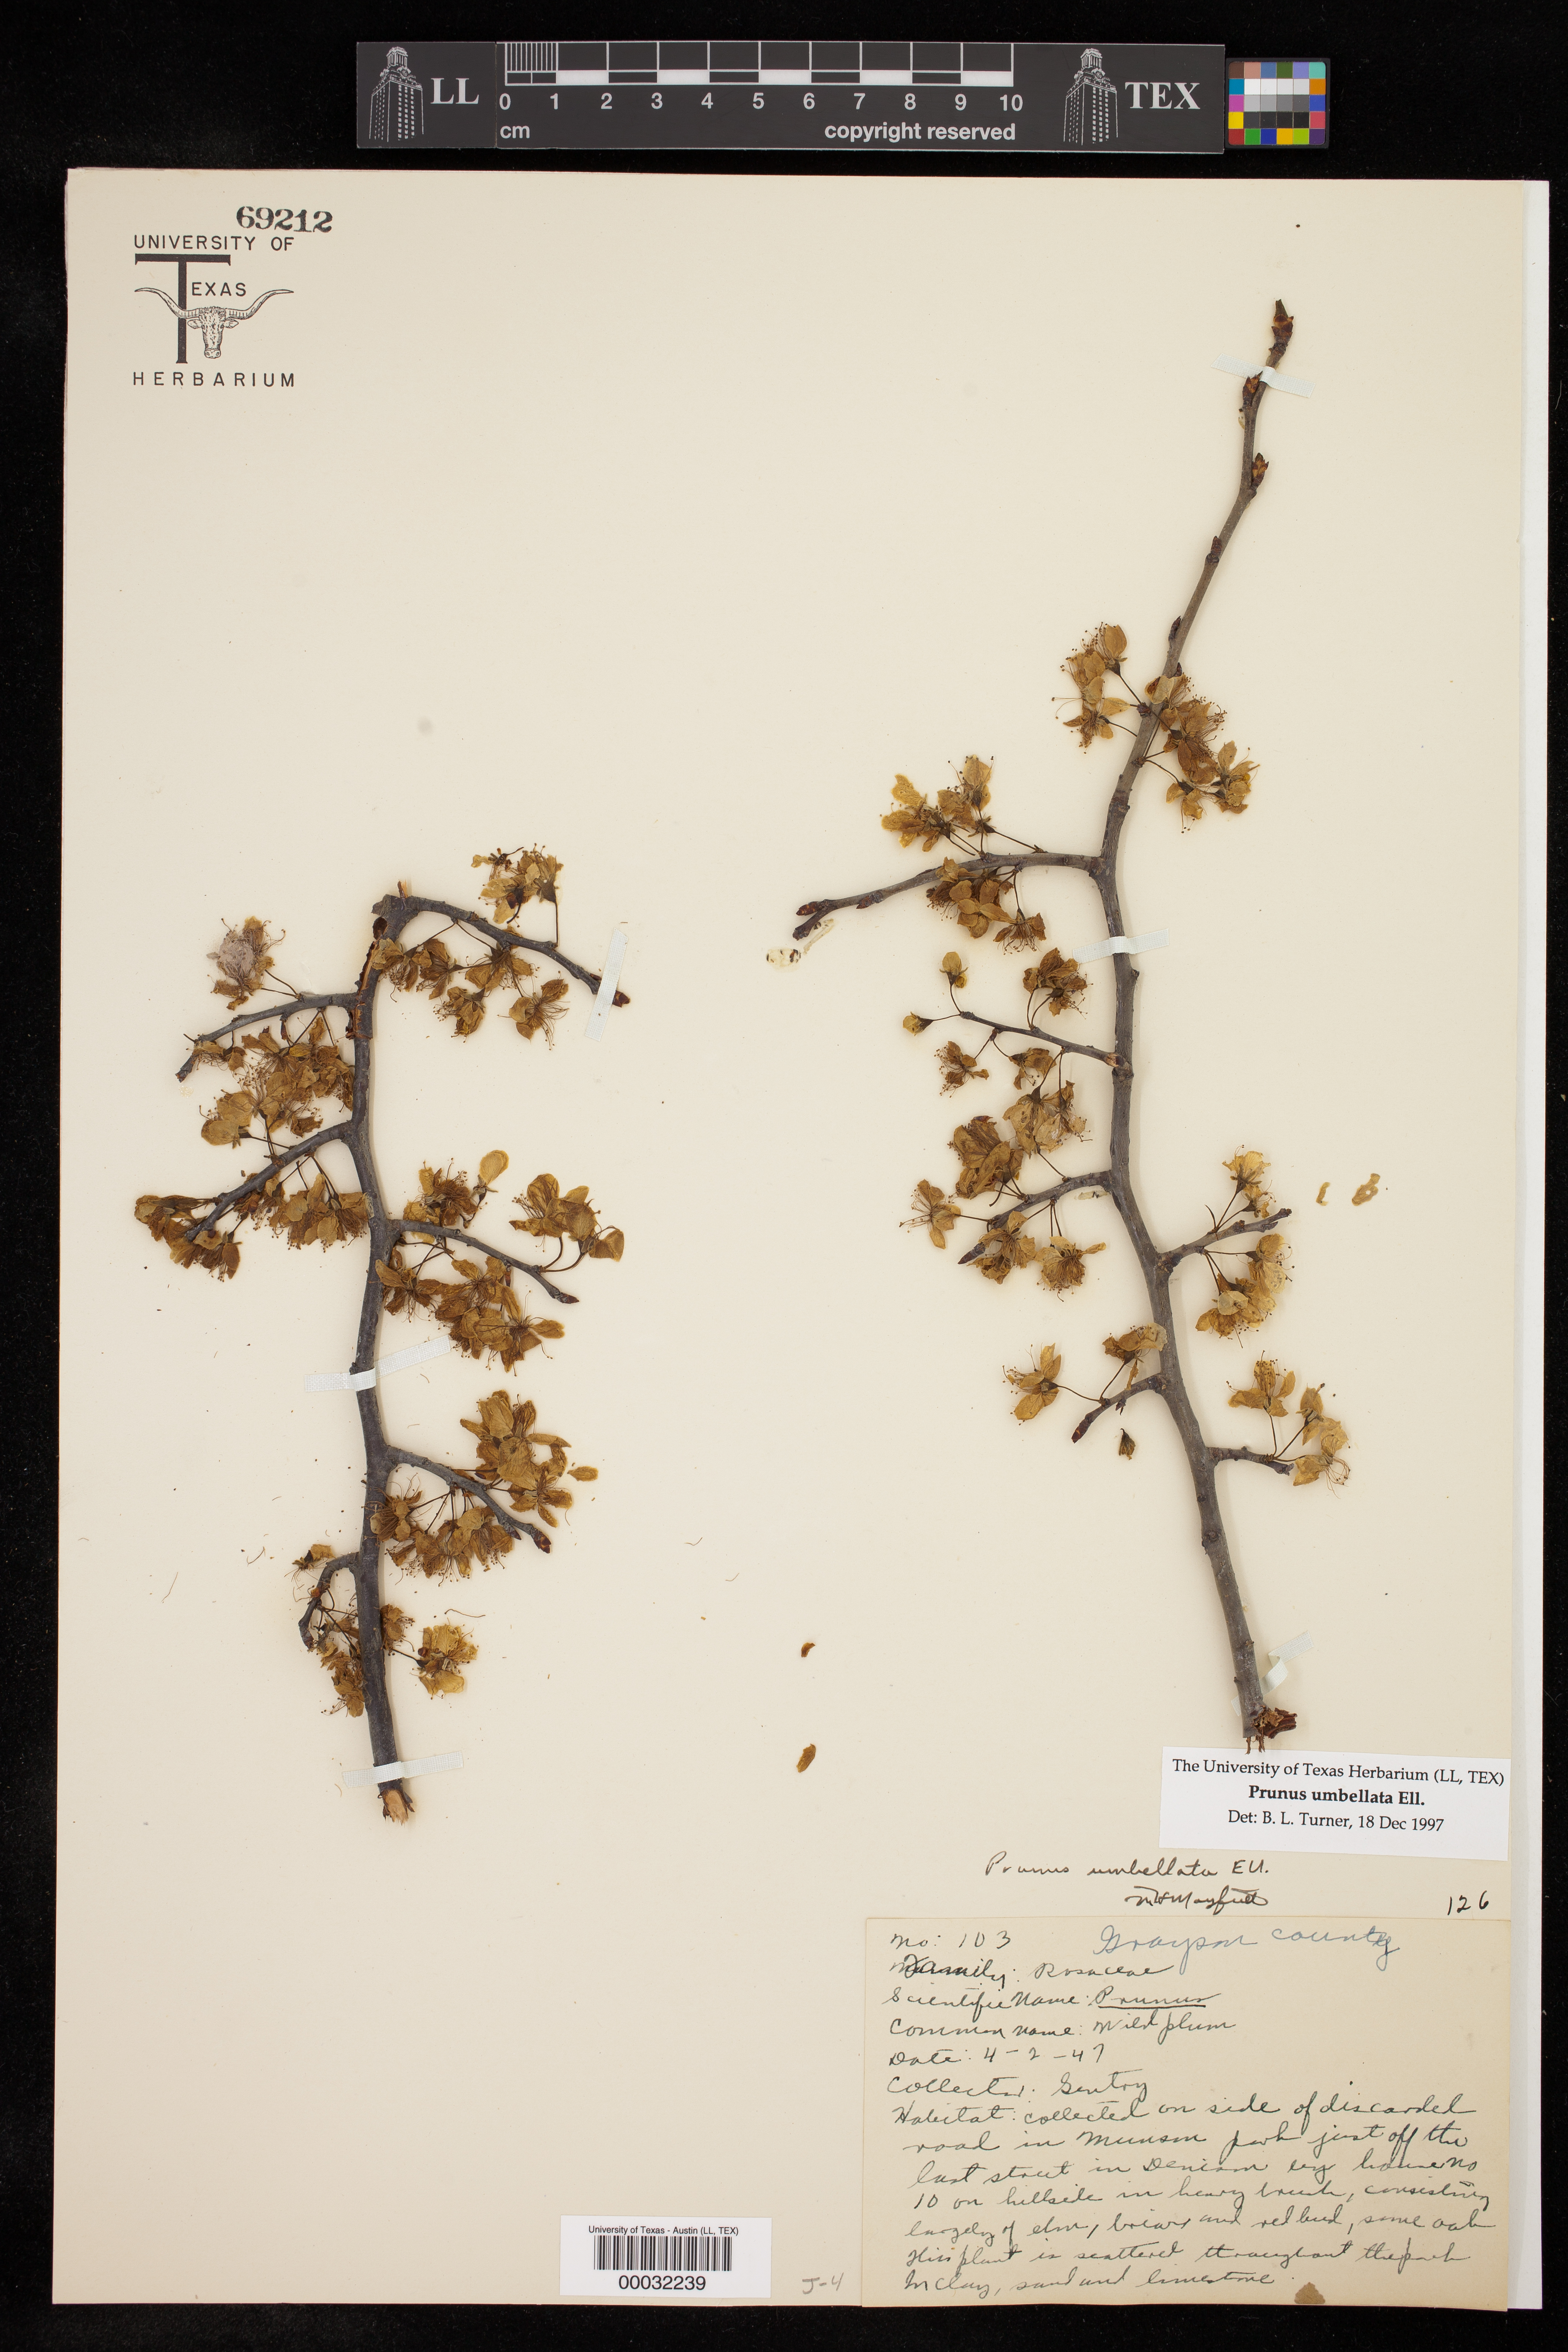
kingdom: Plantae
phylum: Tracheophyta
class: Magnoliopsida
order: Rosales
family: Rosaceae
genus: Prunus
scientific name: Prunus umbellata
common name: Allegheny plum
